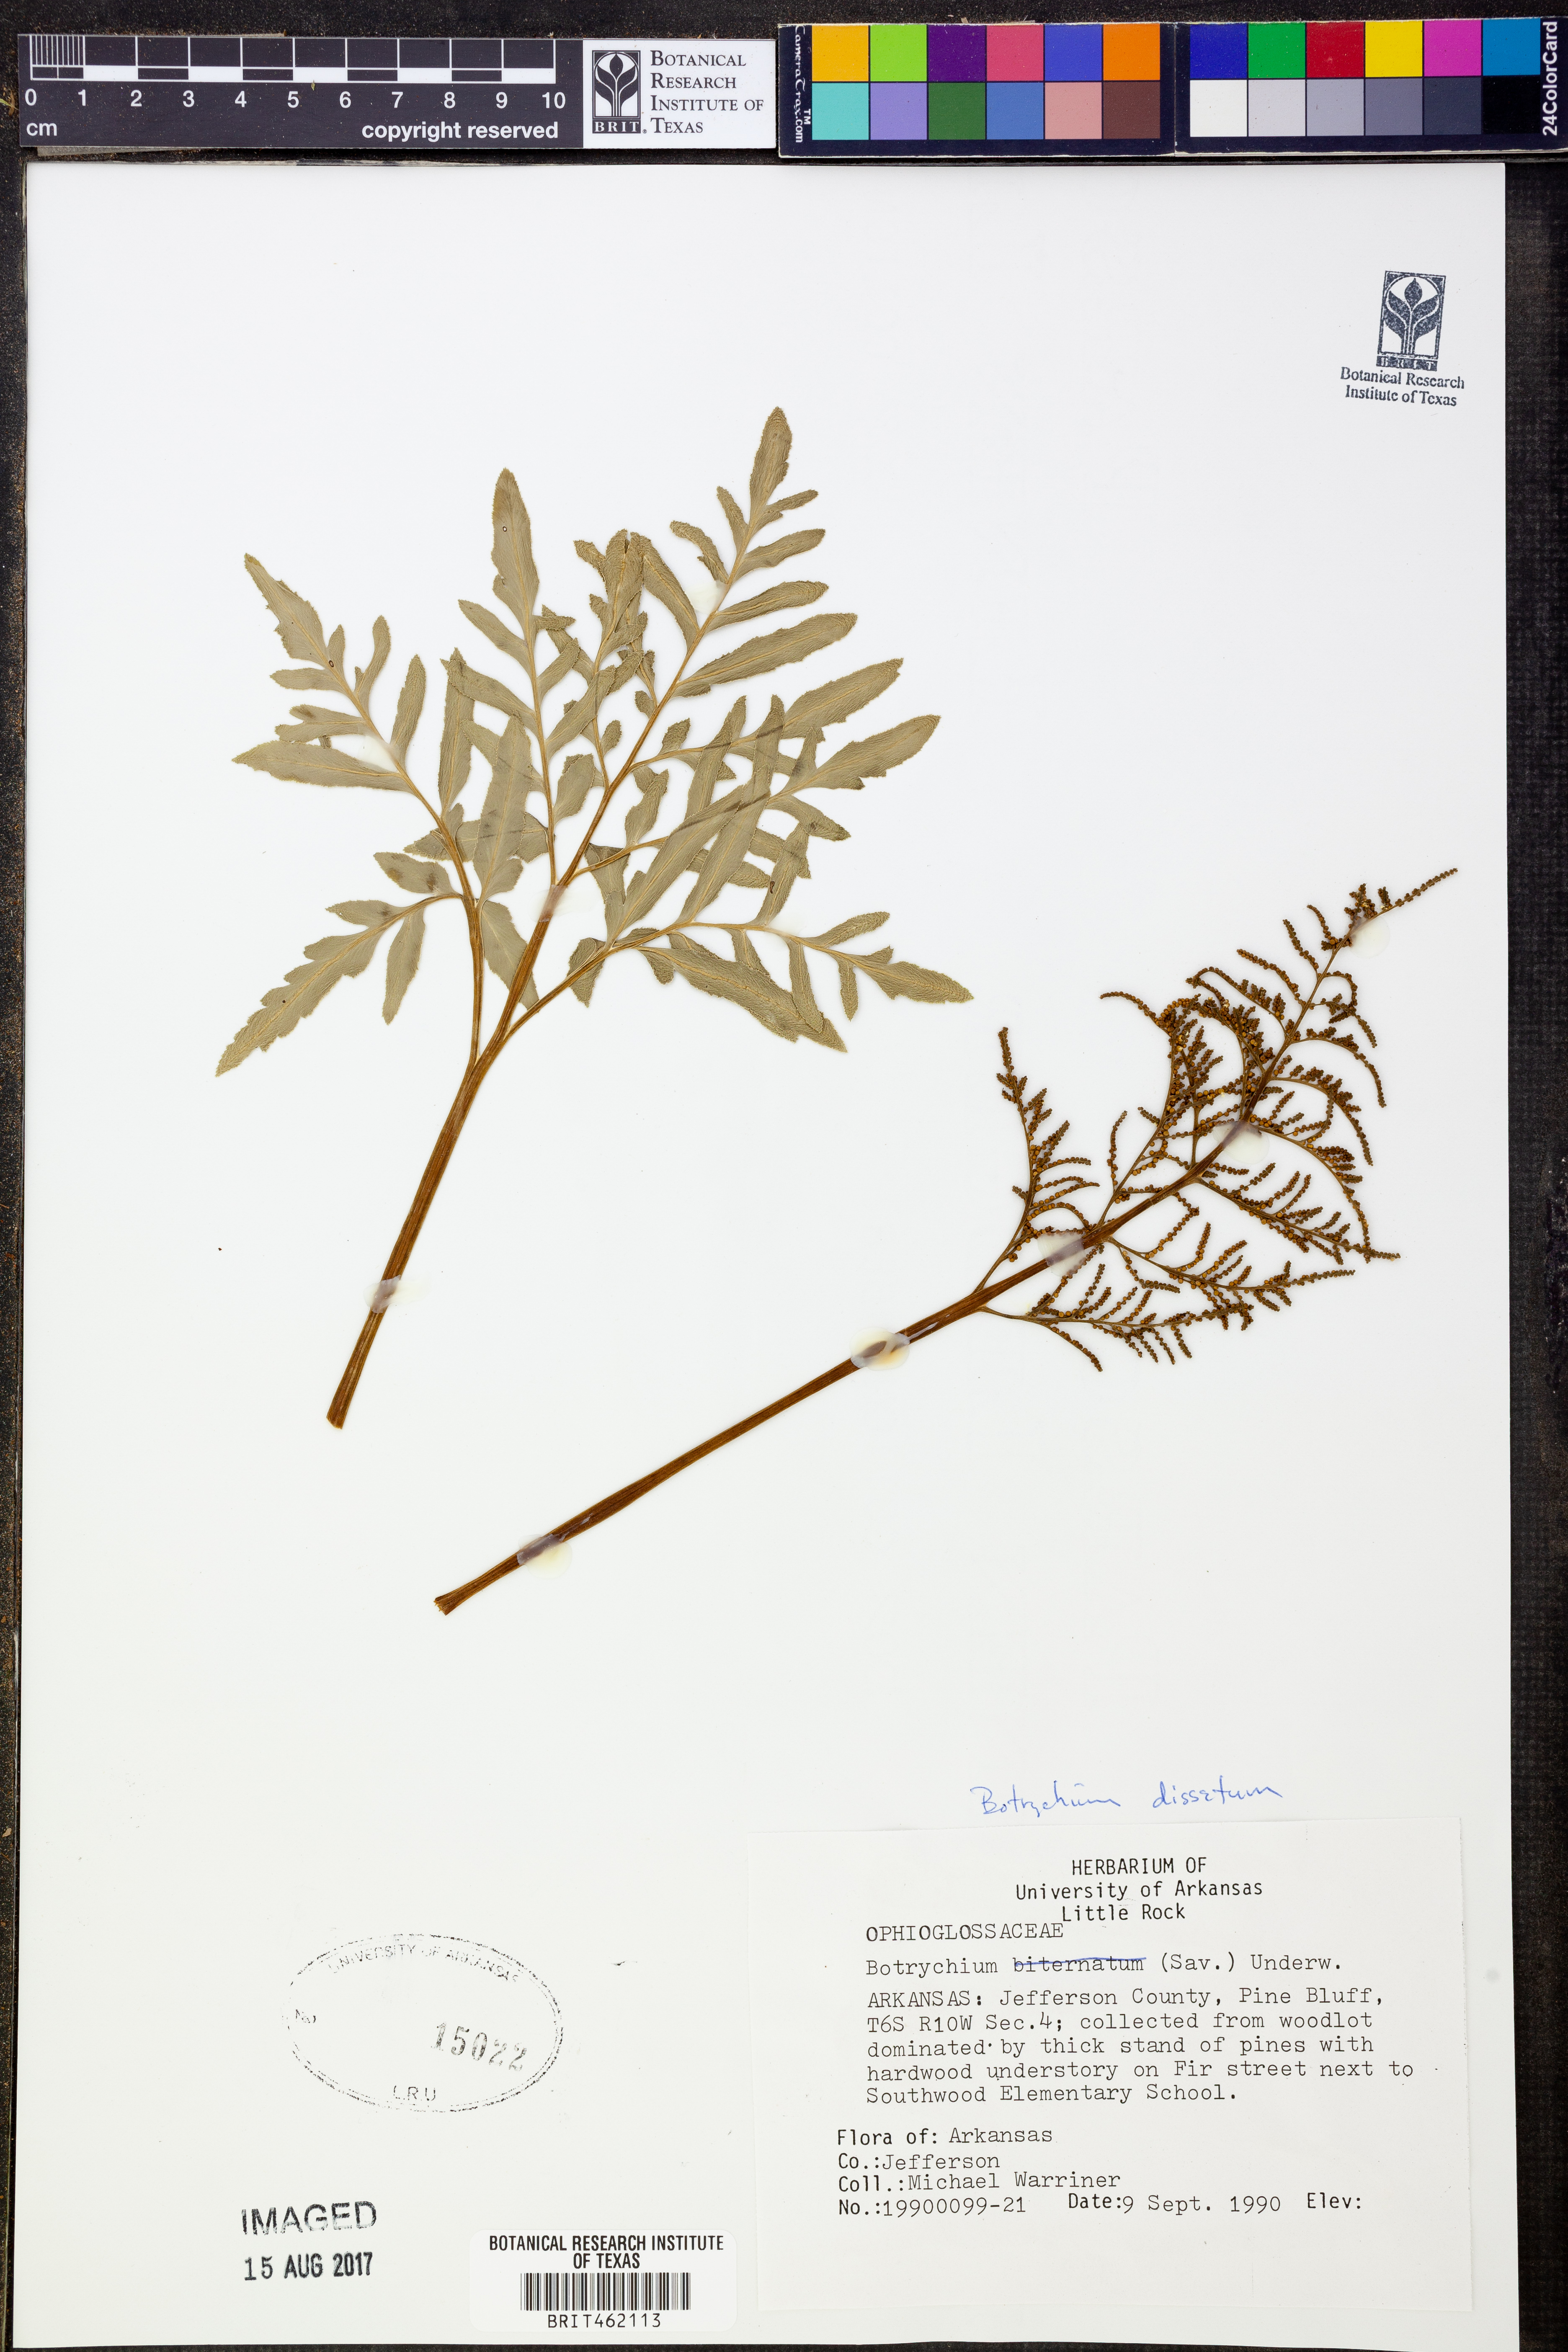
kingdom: Plantae
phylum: Tracheophyta
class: Polypodiopsida
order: Ophioglossales
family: Ophioglossaceae
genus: Sceptridium
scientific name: Sceptridium dissectum
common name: Cut-leaved grapefern
